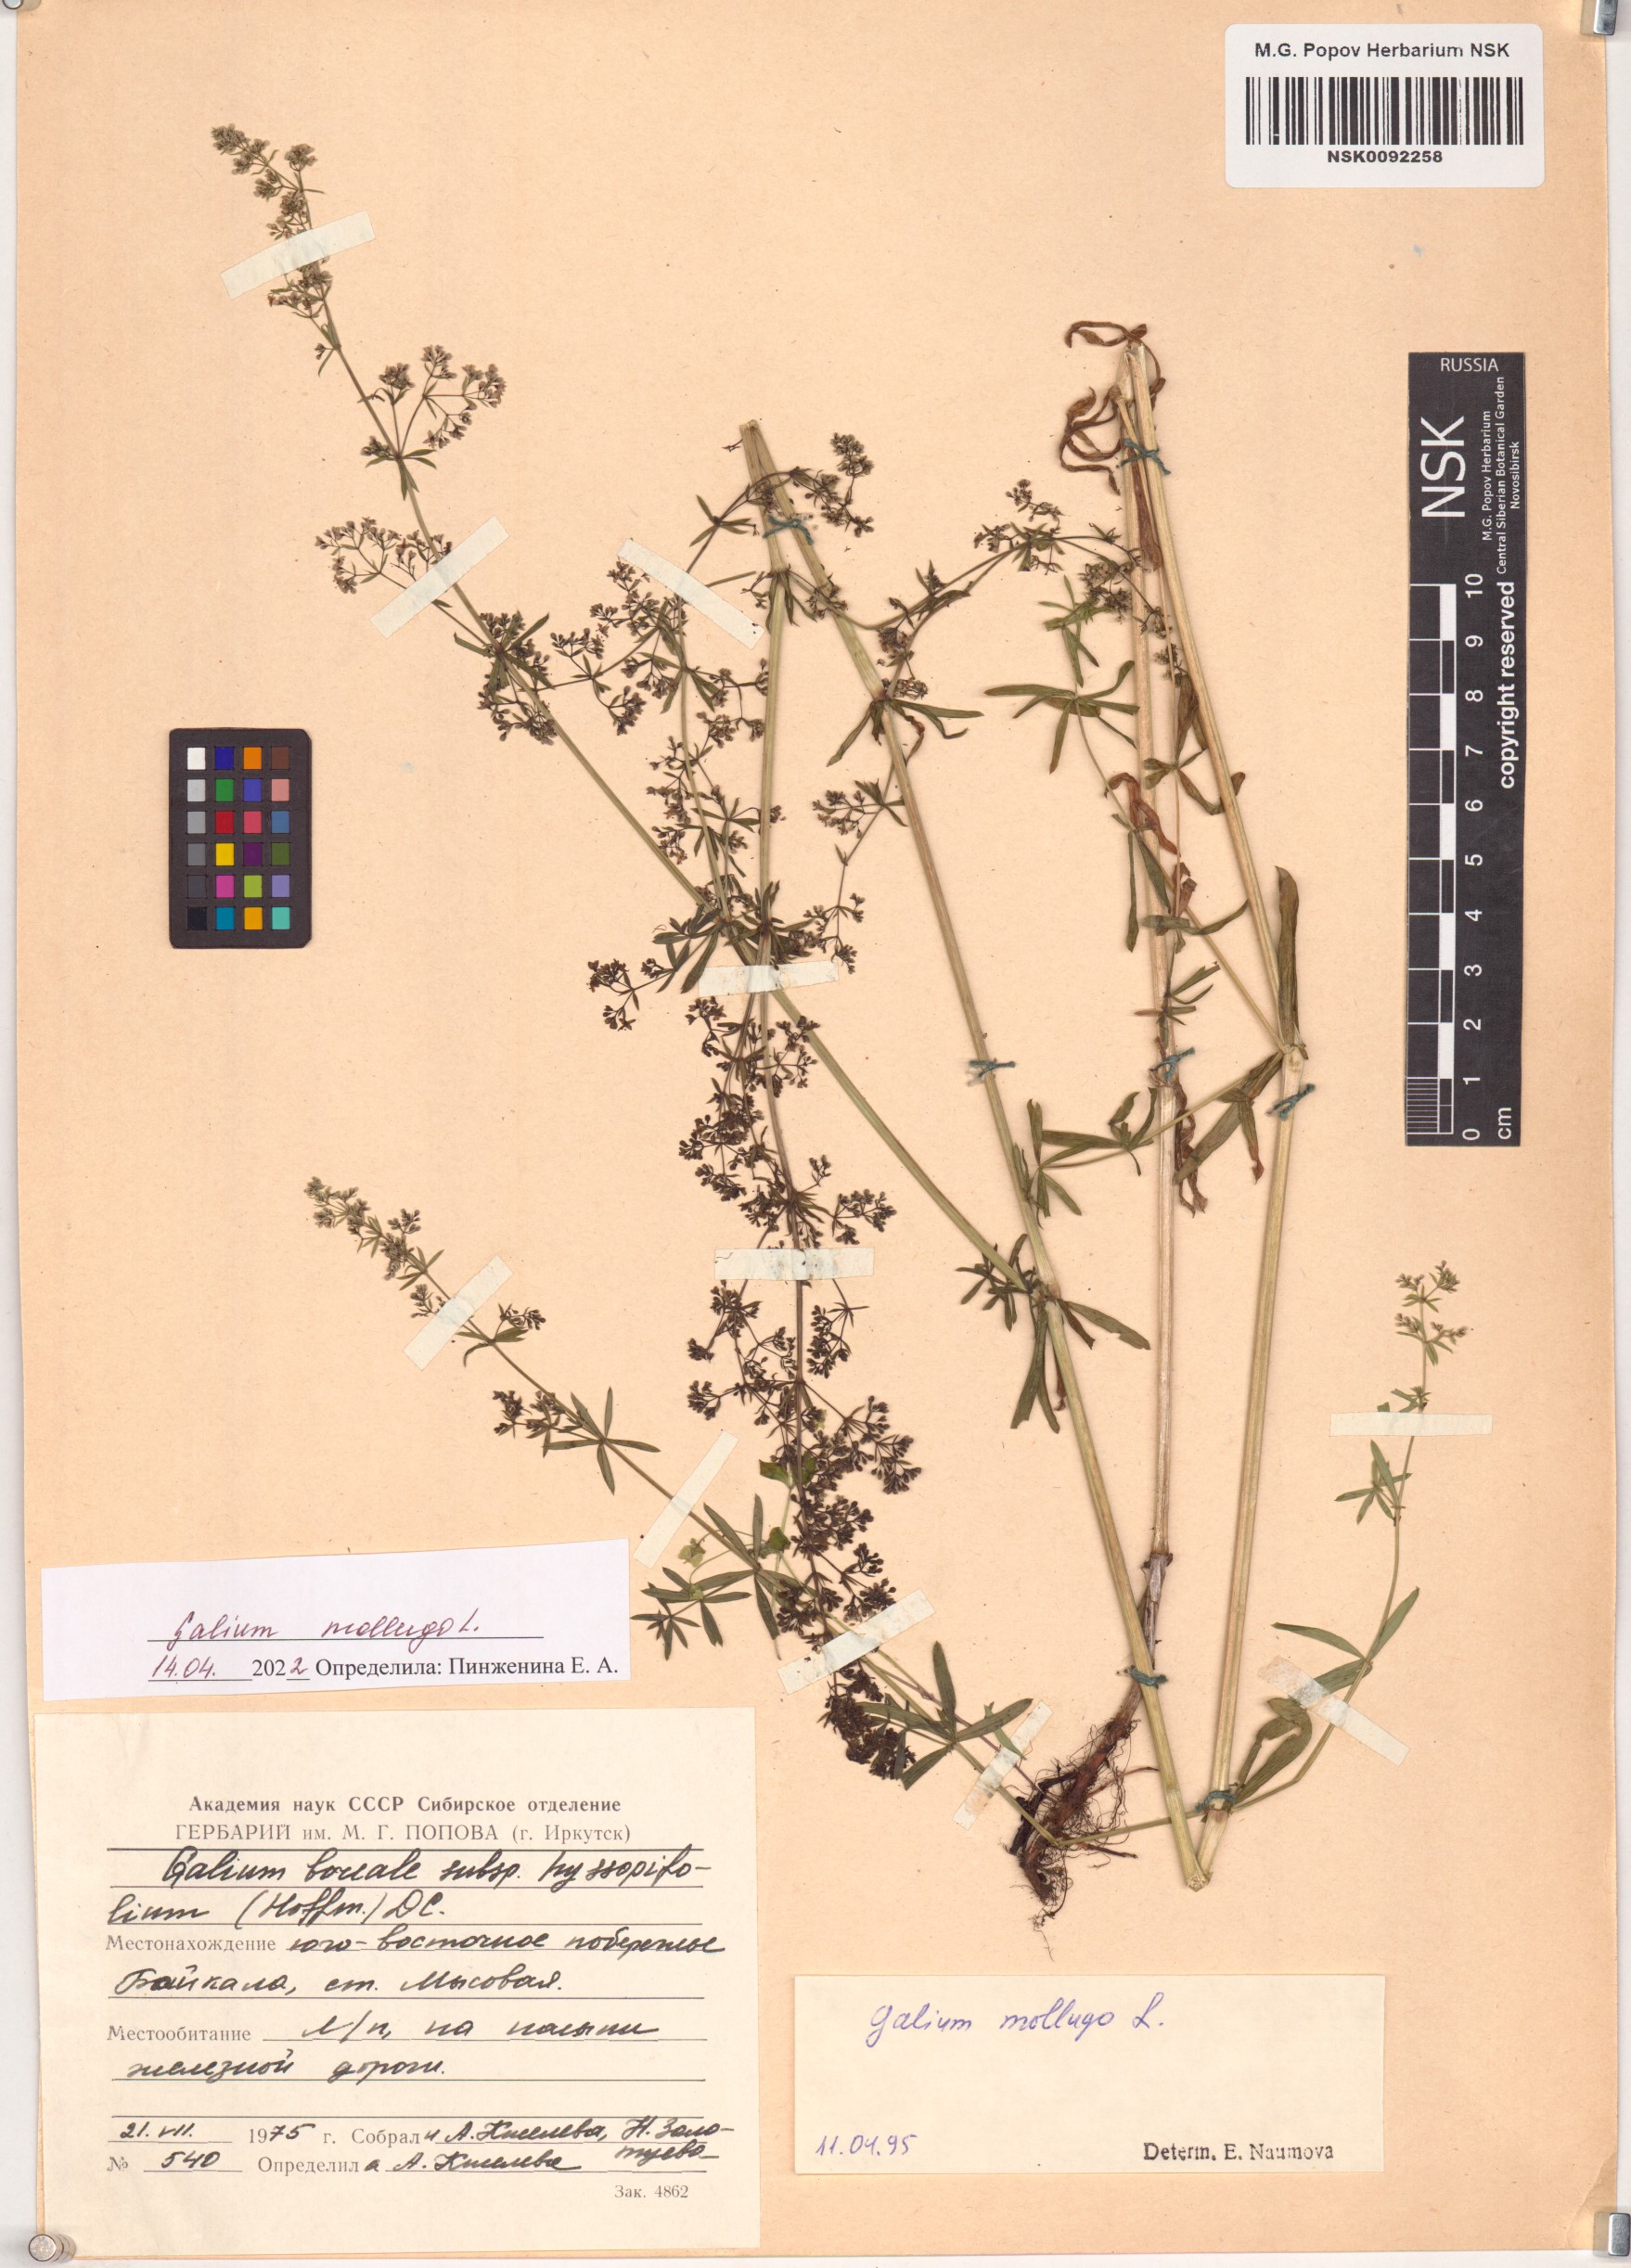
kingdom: Plantae
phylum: Tracheophyta
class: Magnoliopsida
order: Gentianales
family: Rubiaceae
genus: Galium
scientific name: Galium mollugo
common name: Hedge bedstraw
